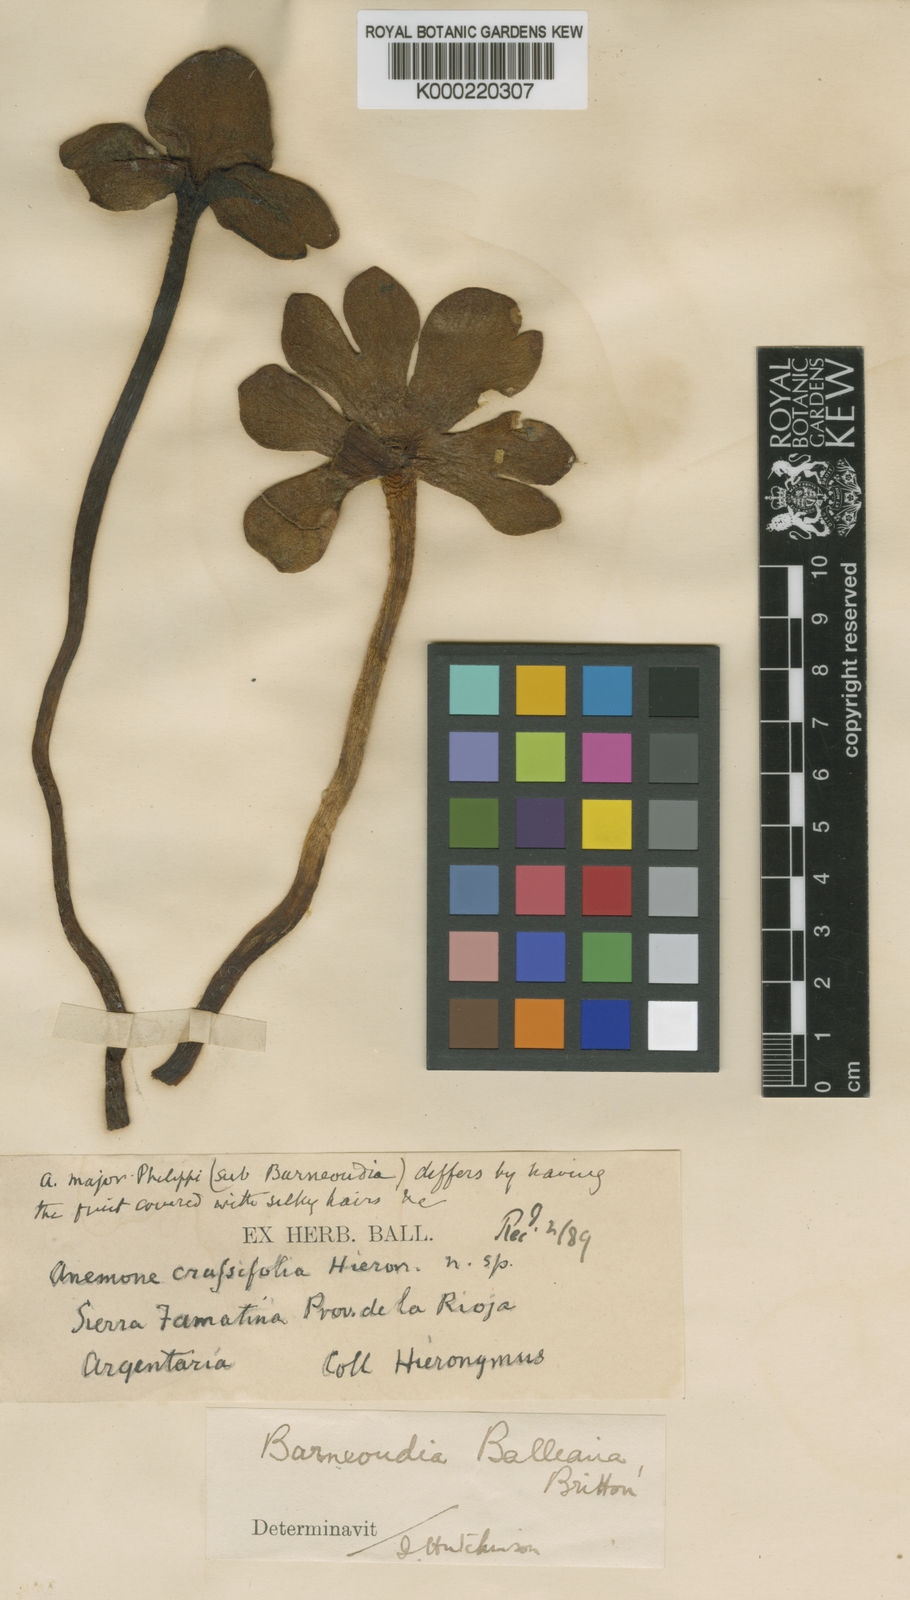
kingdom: Plantae
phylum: Tracheophyta
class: Magnoliopsida
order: Ranunculales
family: Ranunculaceae
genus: Knowltonia
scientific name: Knowltonia balliana
